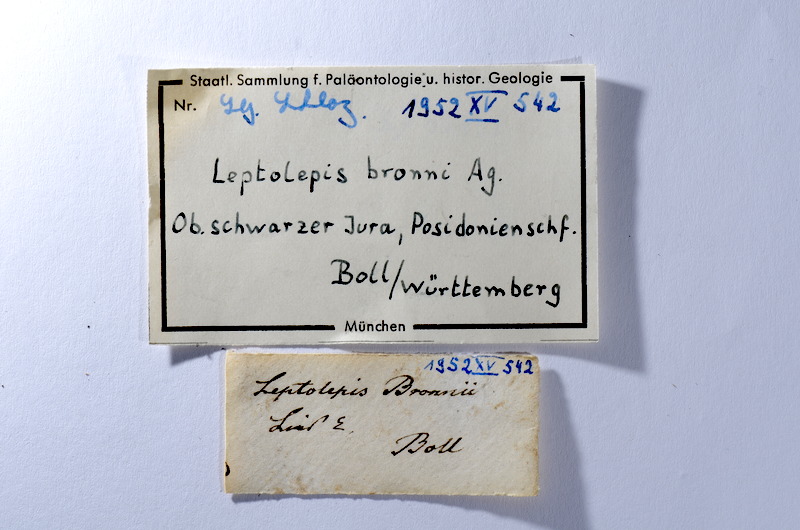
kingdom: Animalia
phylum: Chordata
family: Leptolepididae
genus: Leptolepis
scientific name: Leptolepis coryphaenoides
